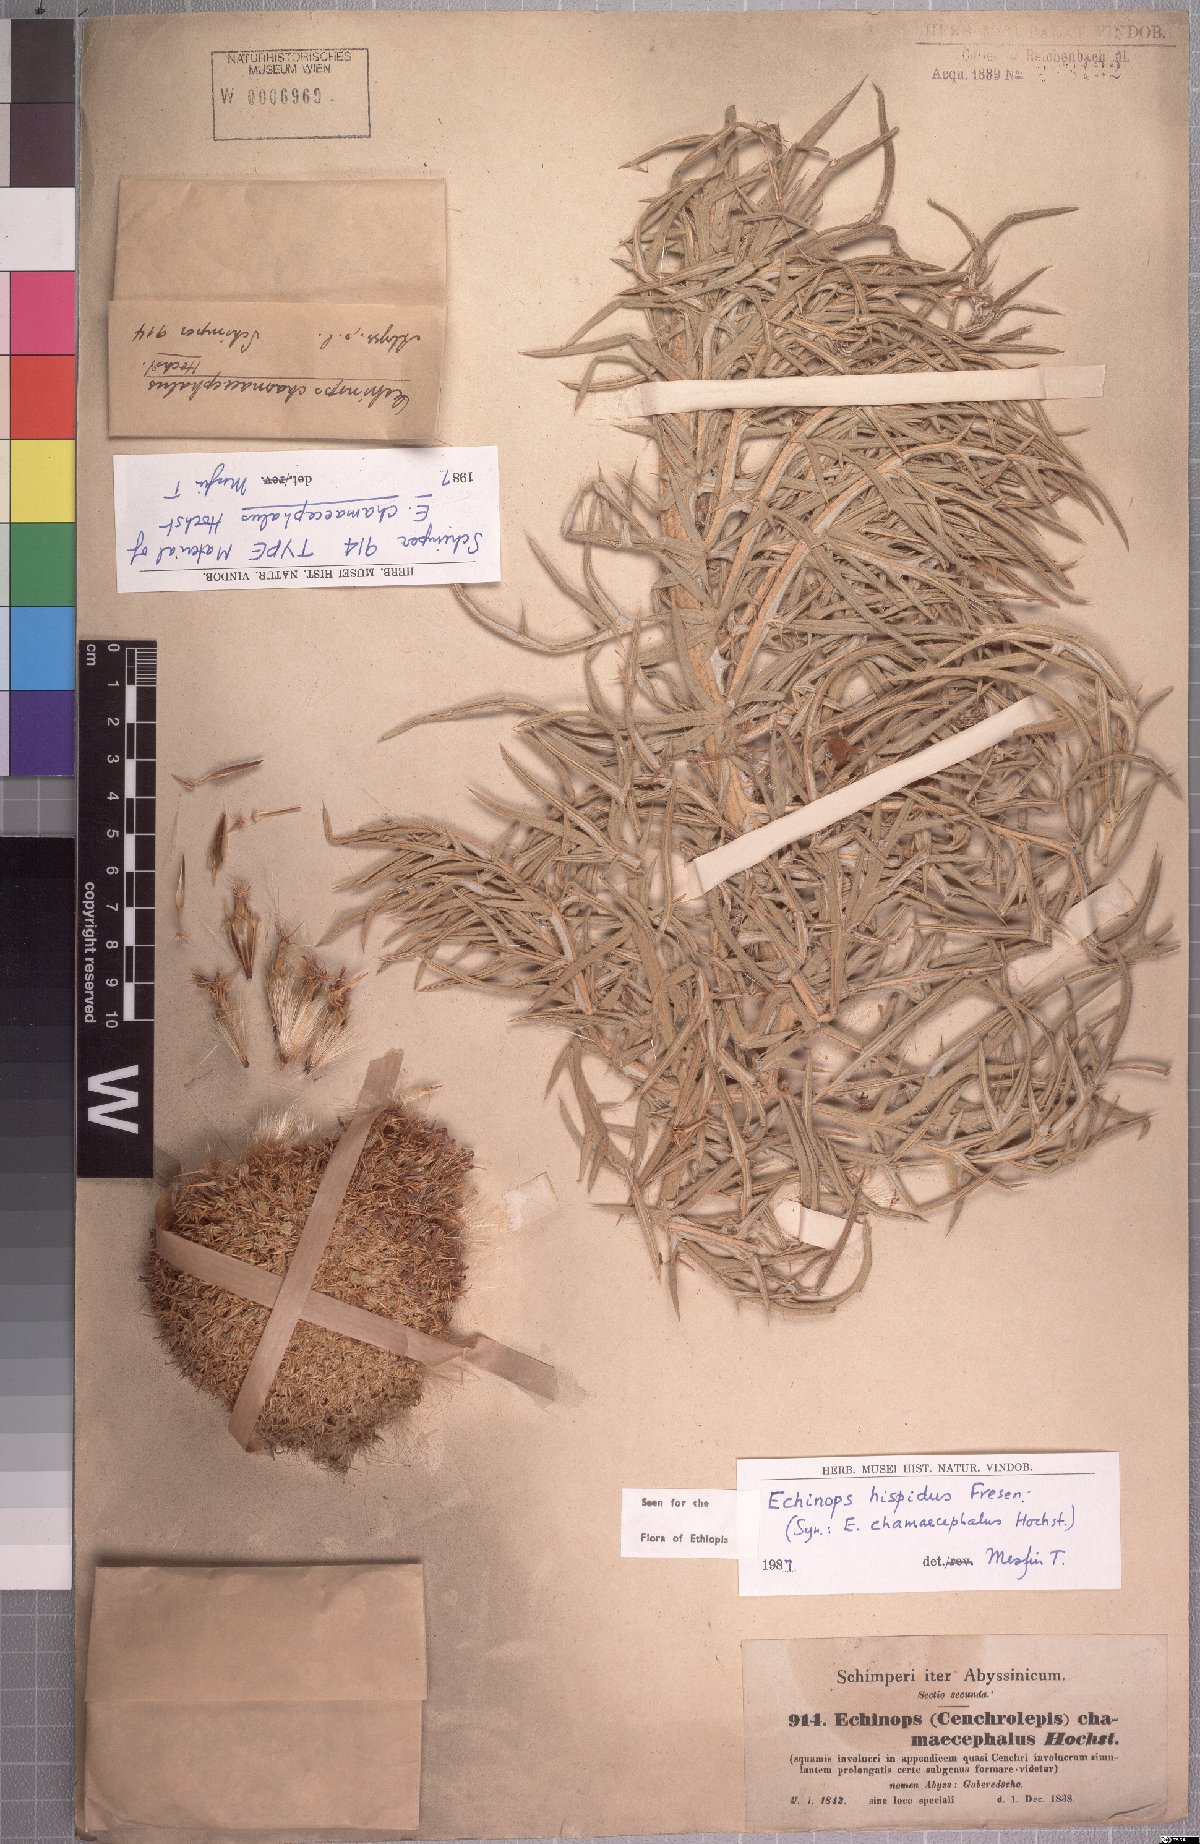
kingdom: Plantae
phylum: Tracheophyta
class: Magnoliopsida
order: Asterales
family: Asteraceae
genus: Echinops
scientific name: Echinops hispidus
